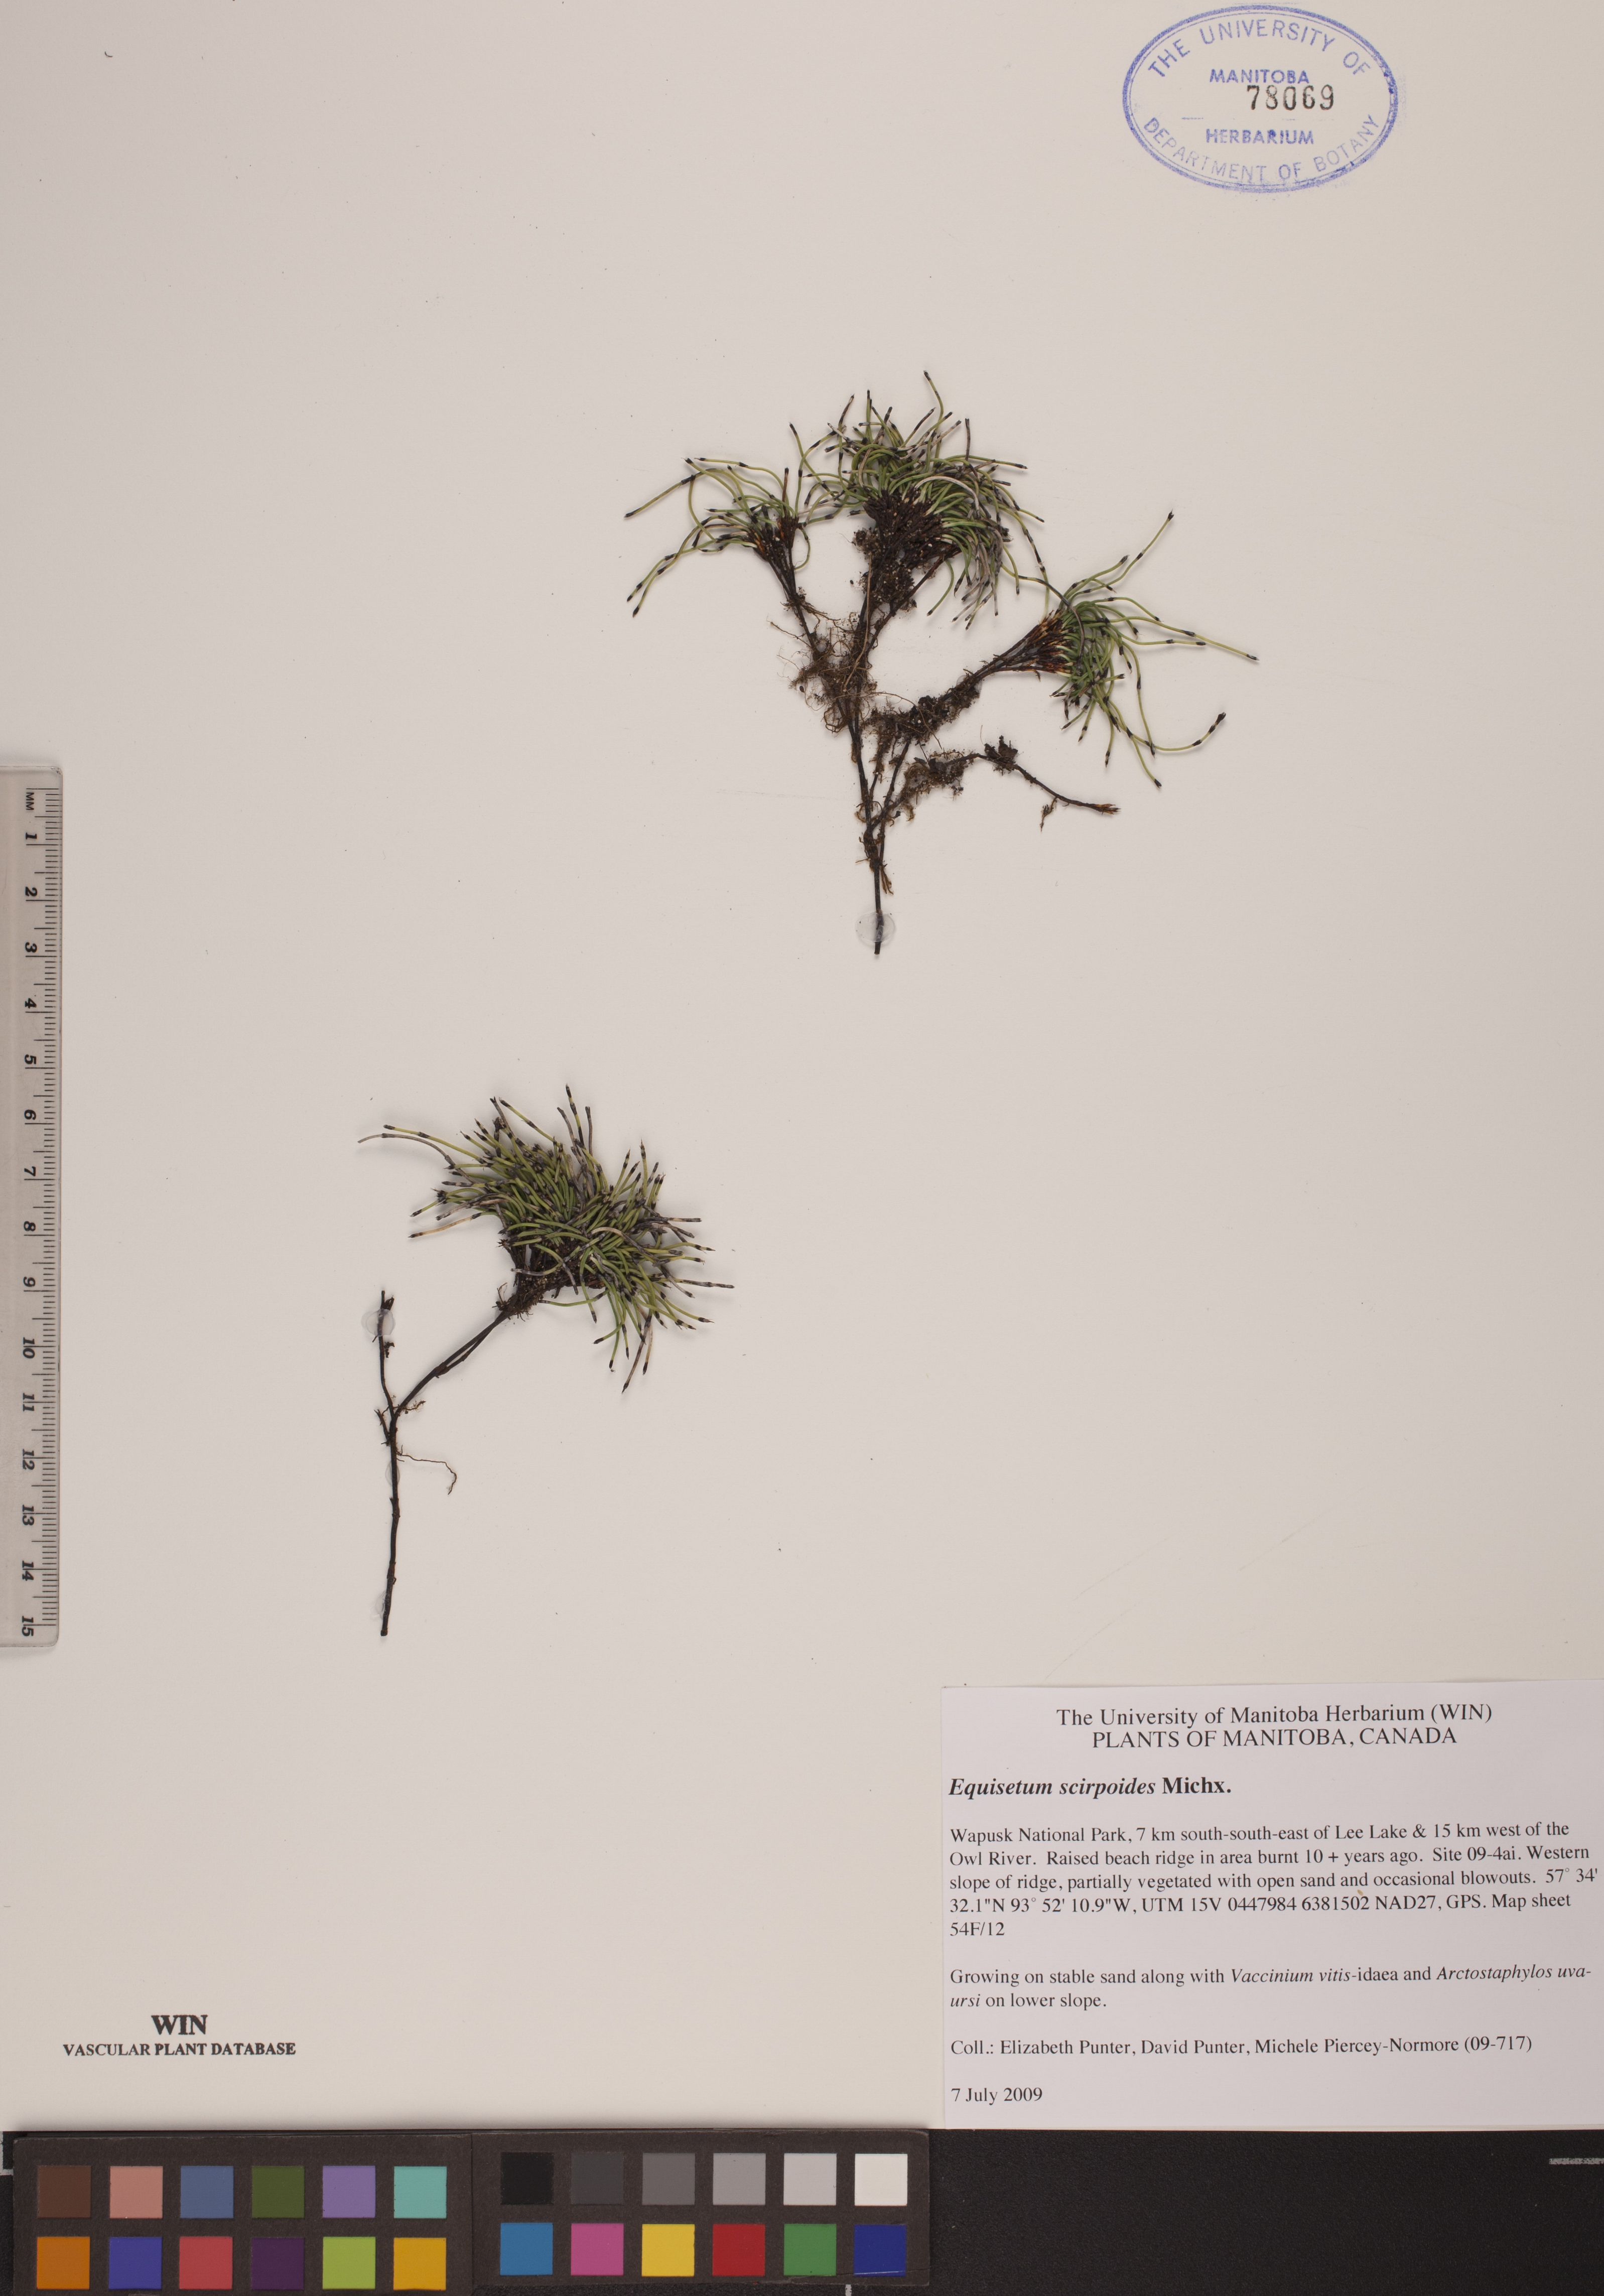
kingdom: Plantae
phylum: Tracheophyta
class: Polypodiopsida
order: Equisetales
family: Equisetaceae
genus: Equisetum
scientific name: Equisetum scirpoides
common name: Delicate horsetail
